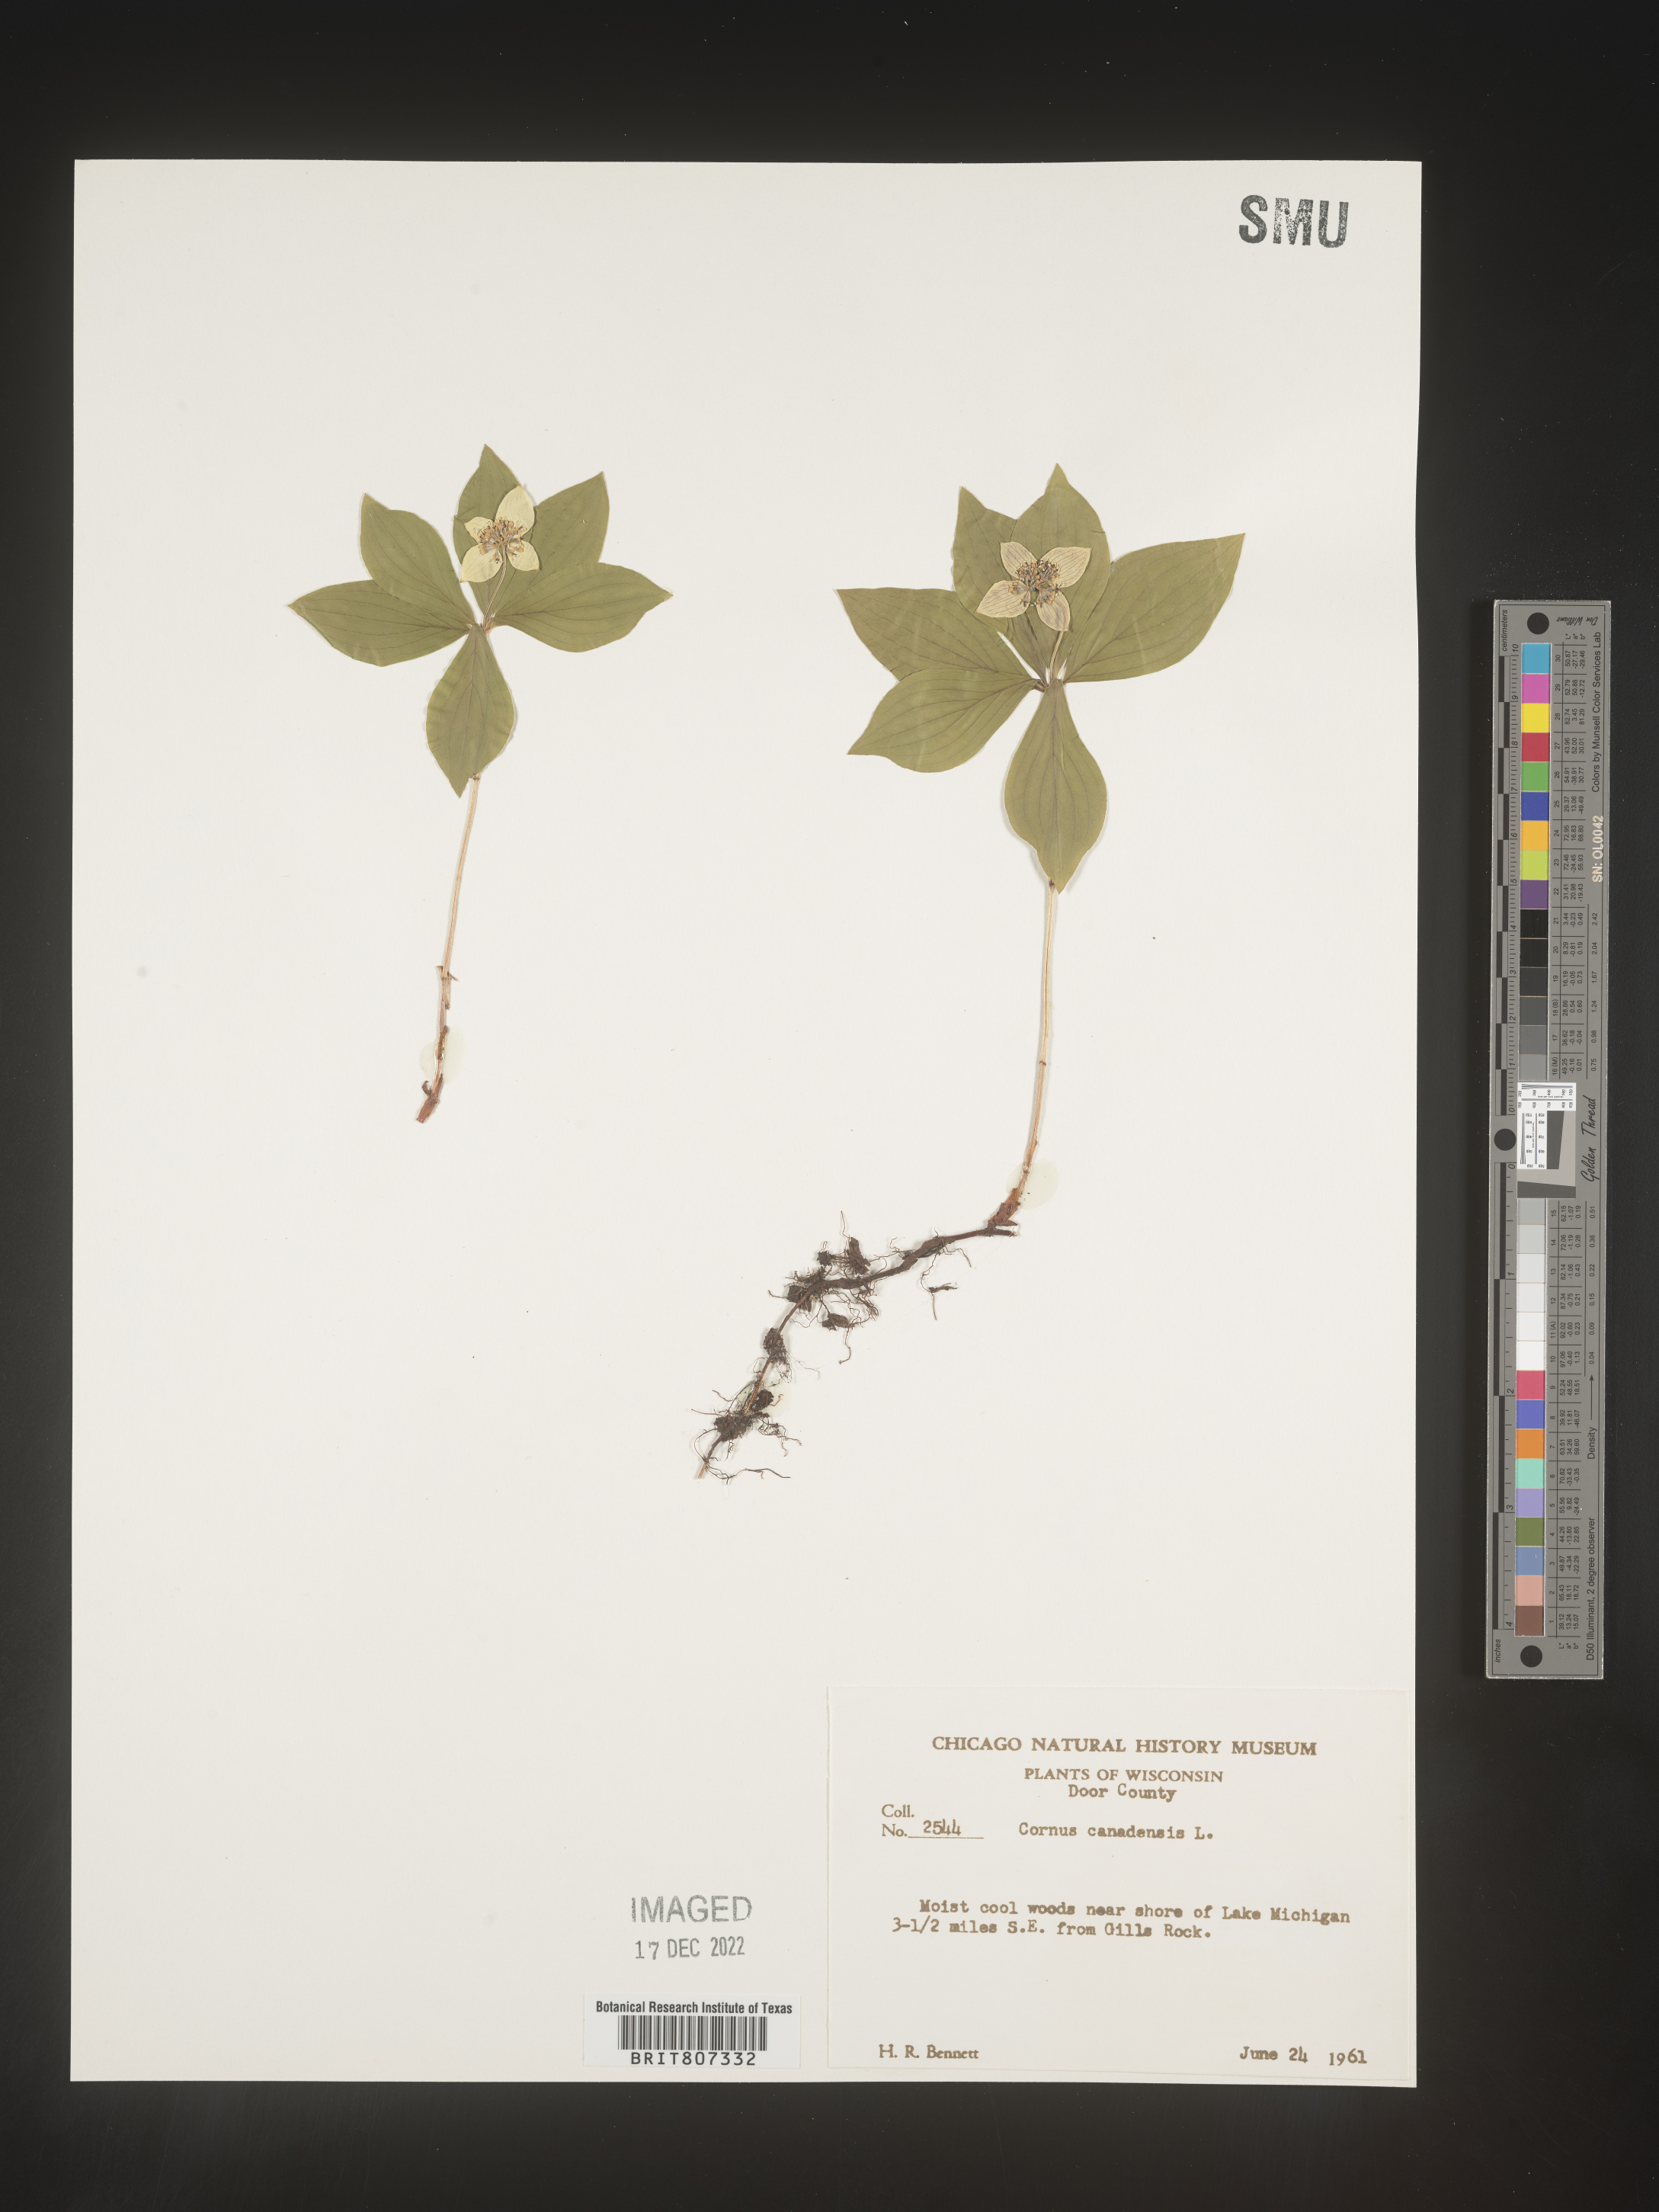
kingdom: Plantae
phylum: Tracheophyta
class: Magnoliopsida
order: Cornales
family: Cornaceae
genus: Cornus
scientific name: Cornus canadensis
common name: Creeping dogwood
